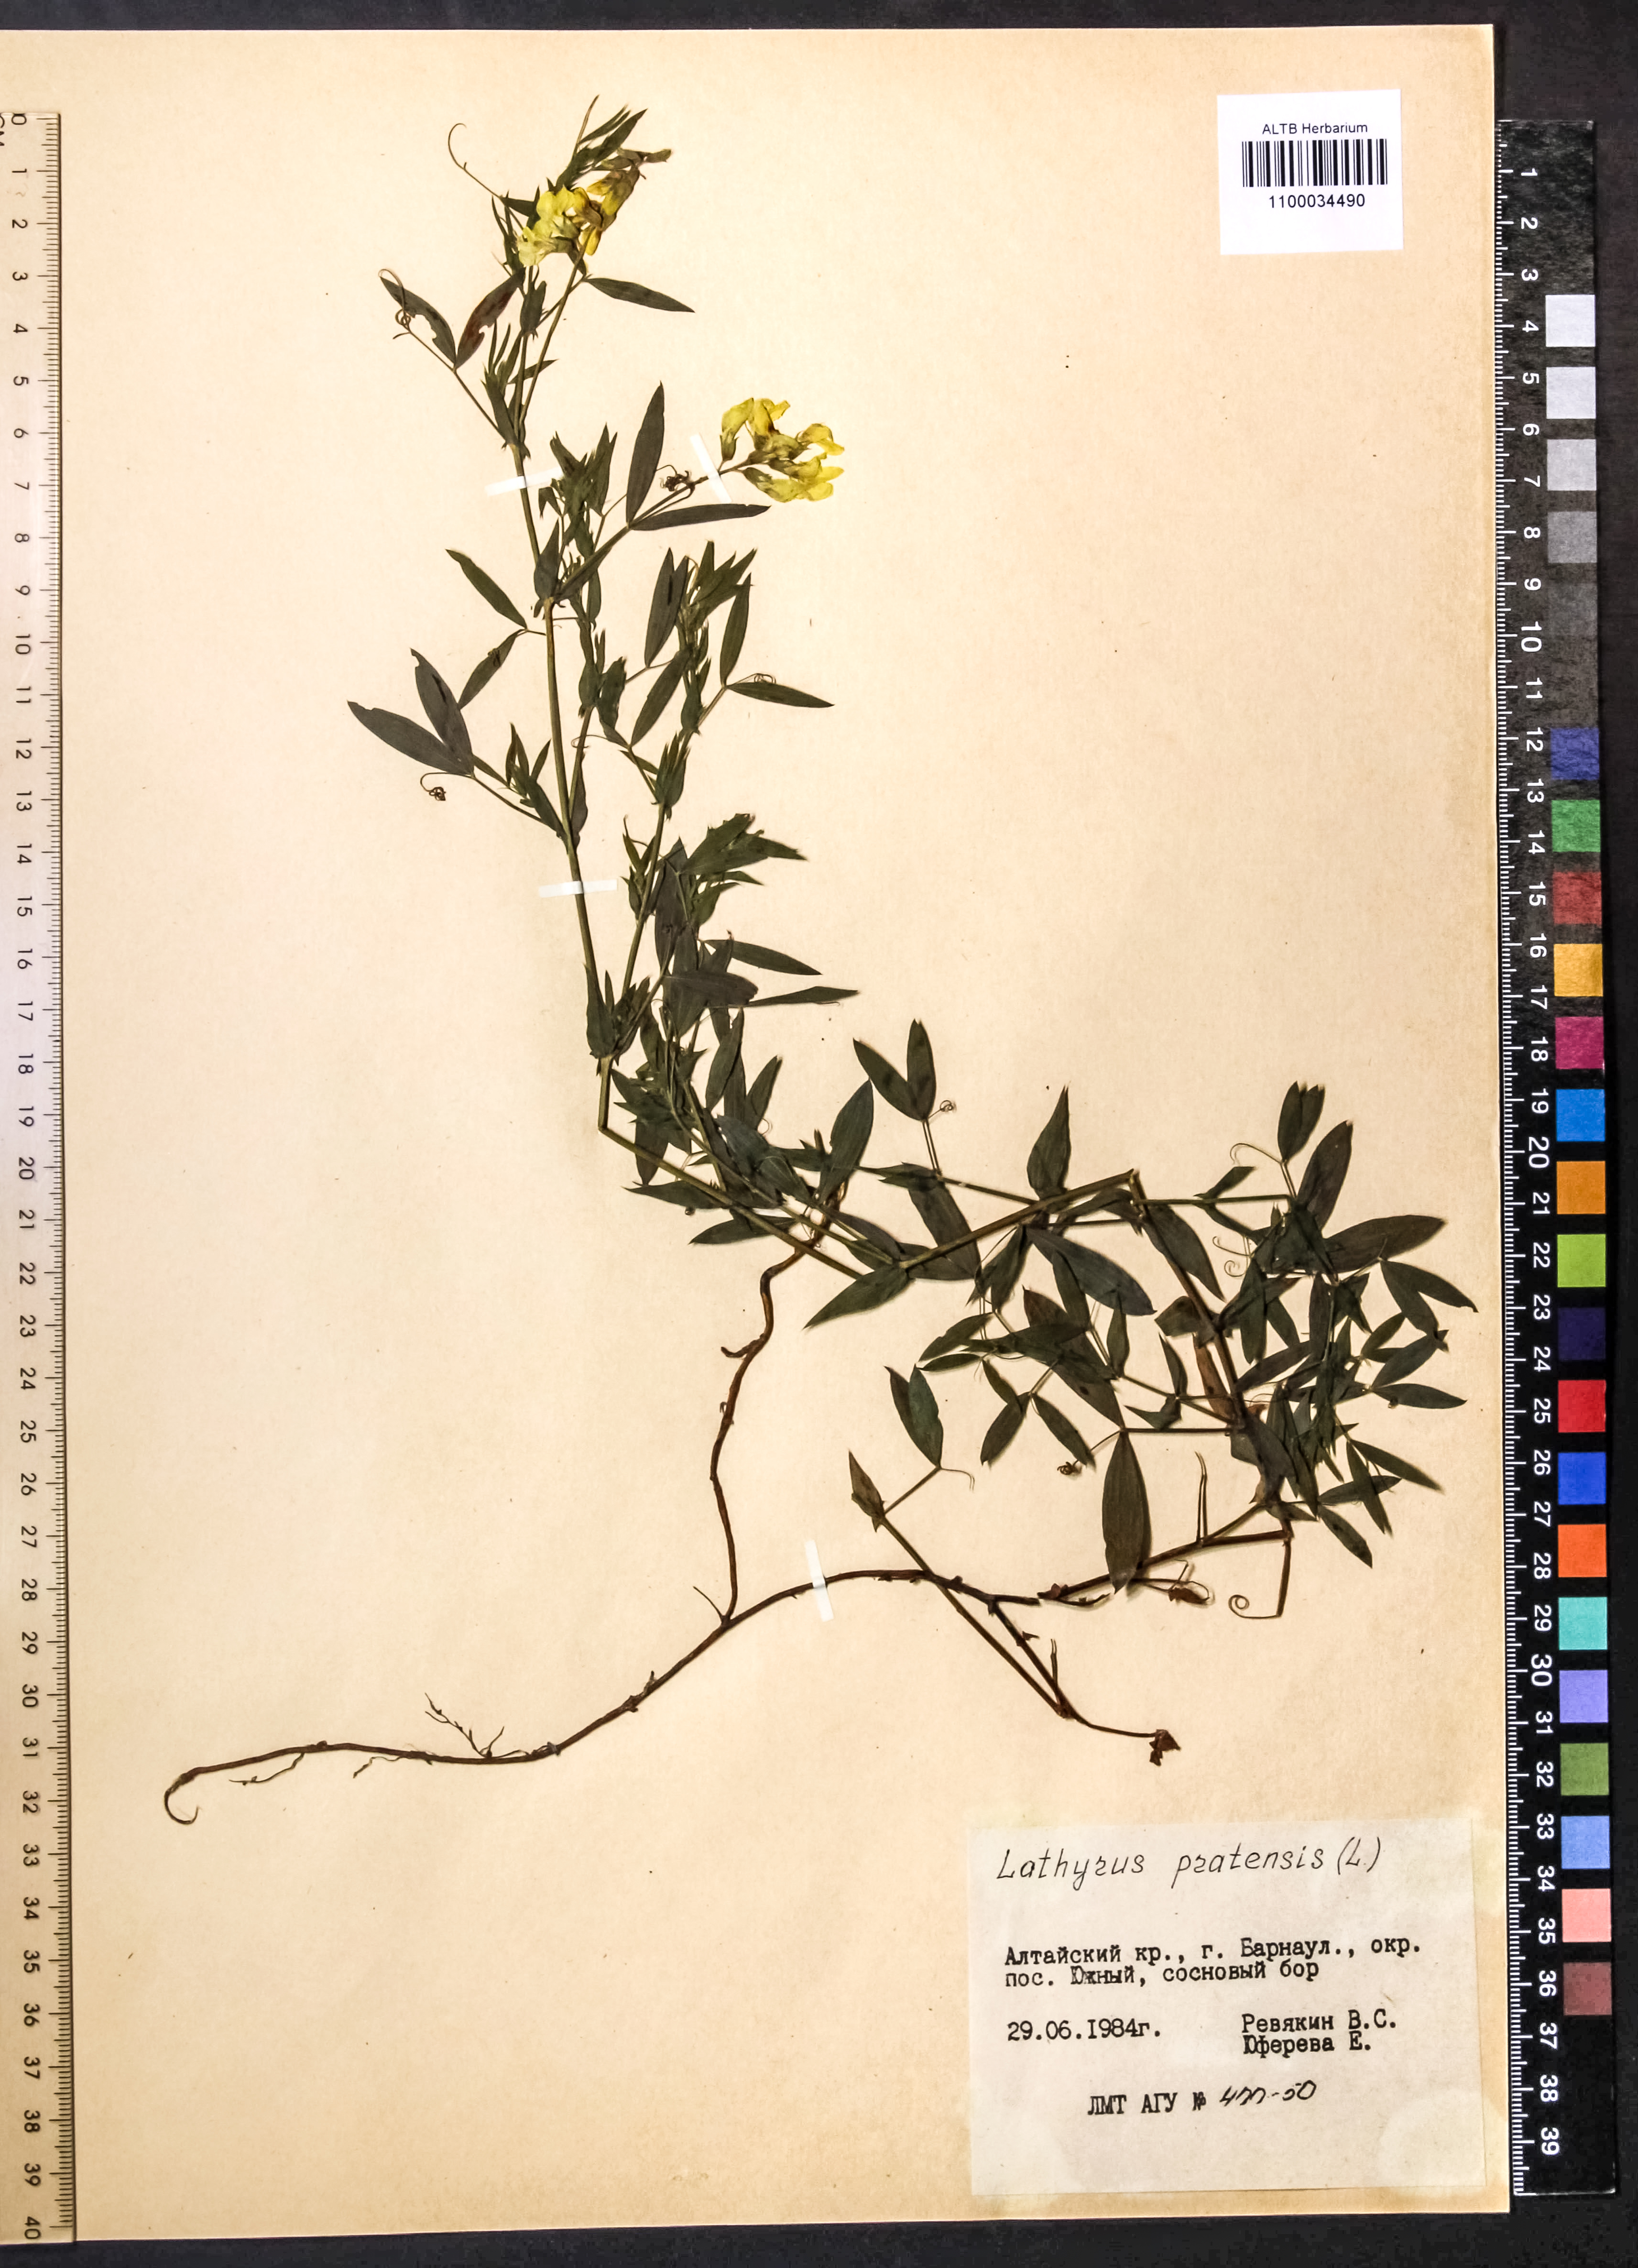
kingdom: Plantae
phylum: Tracheophyta
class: Magnoliopsida
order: Fabales
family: Fabaceae
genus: Lathyrus
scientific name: Lathyrus pratensis
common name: Meadow vetchling
